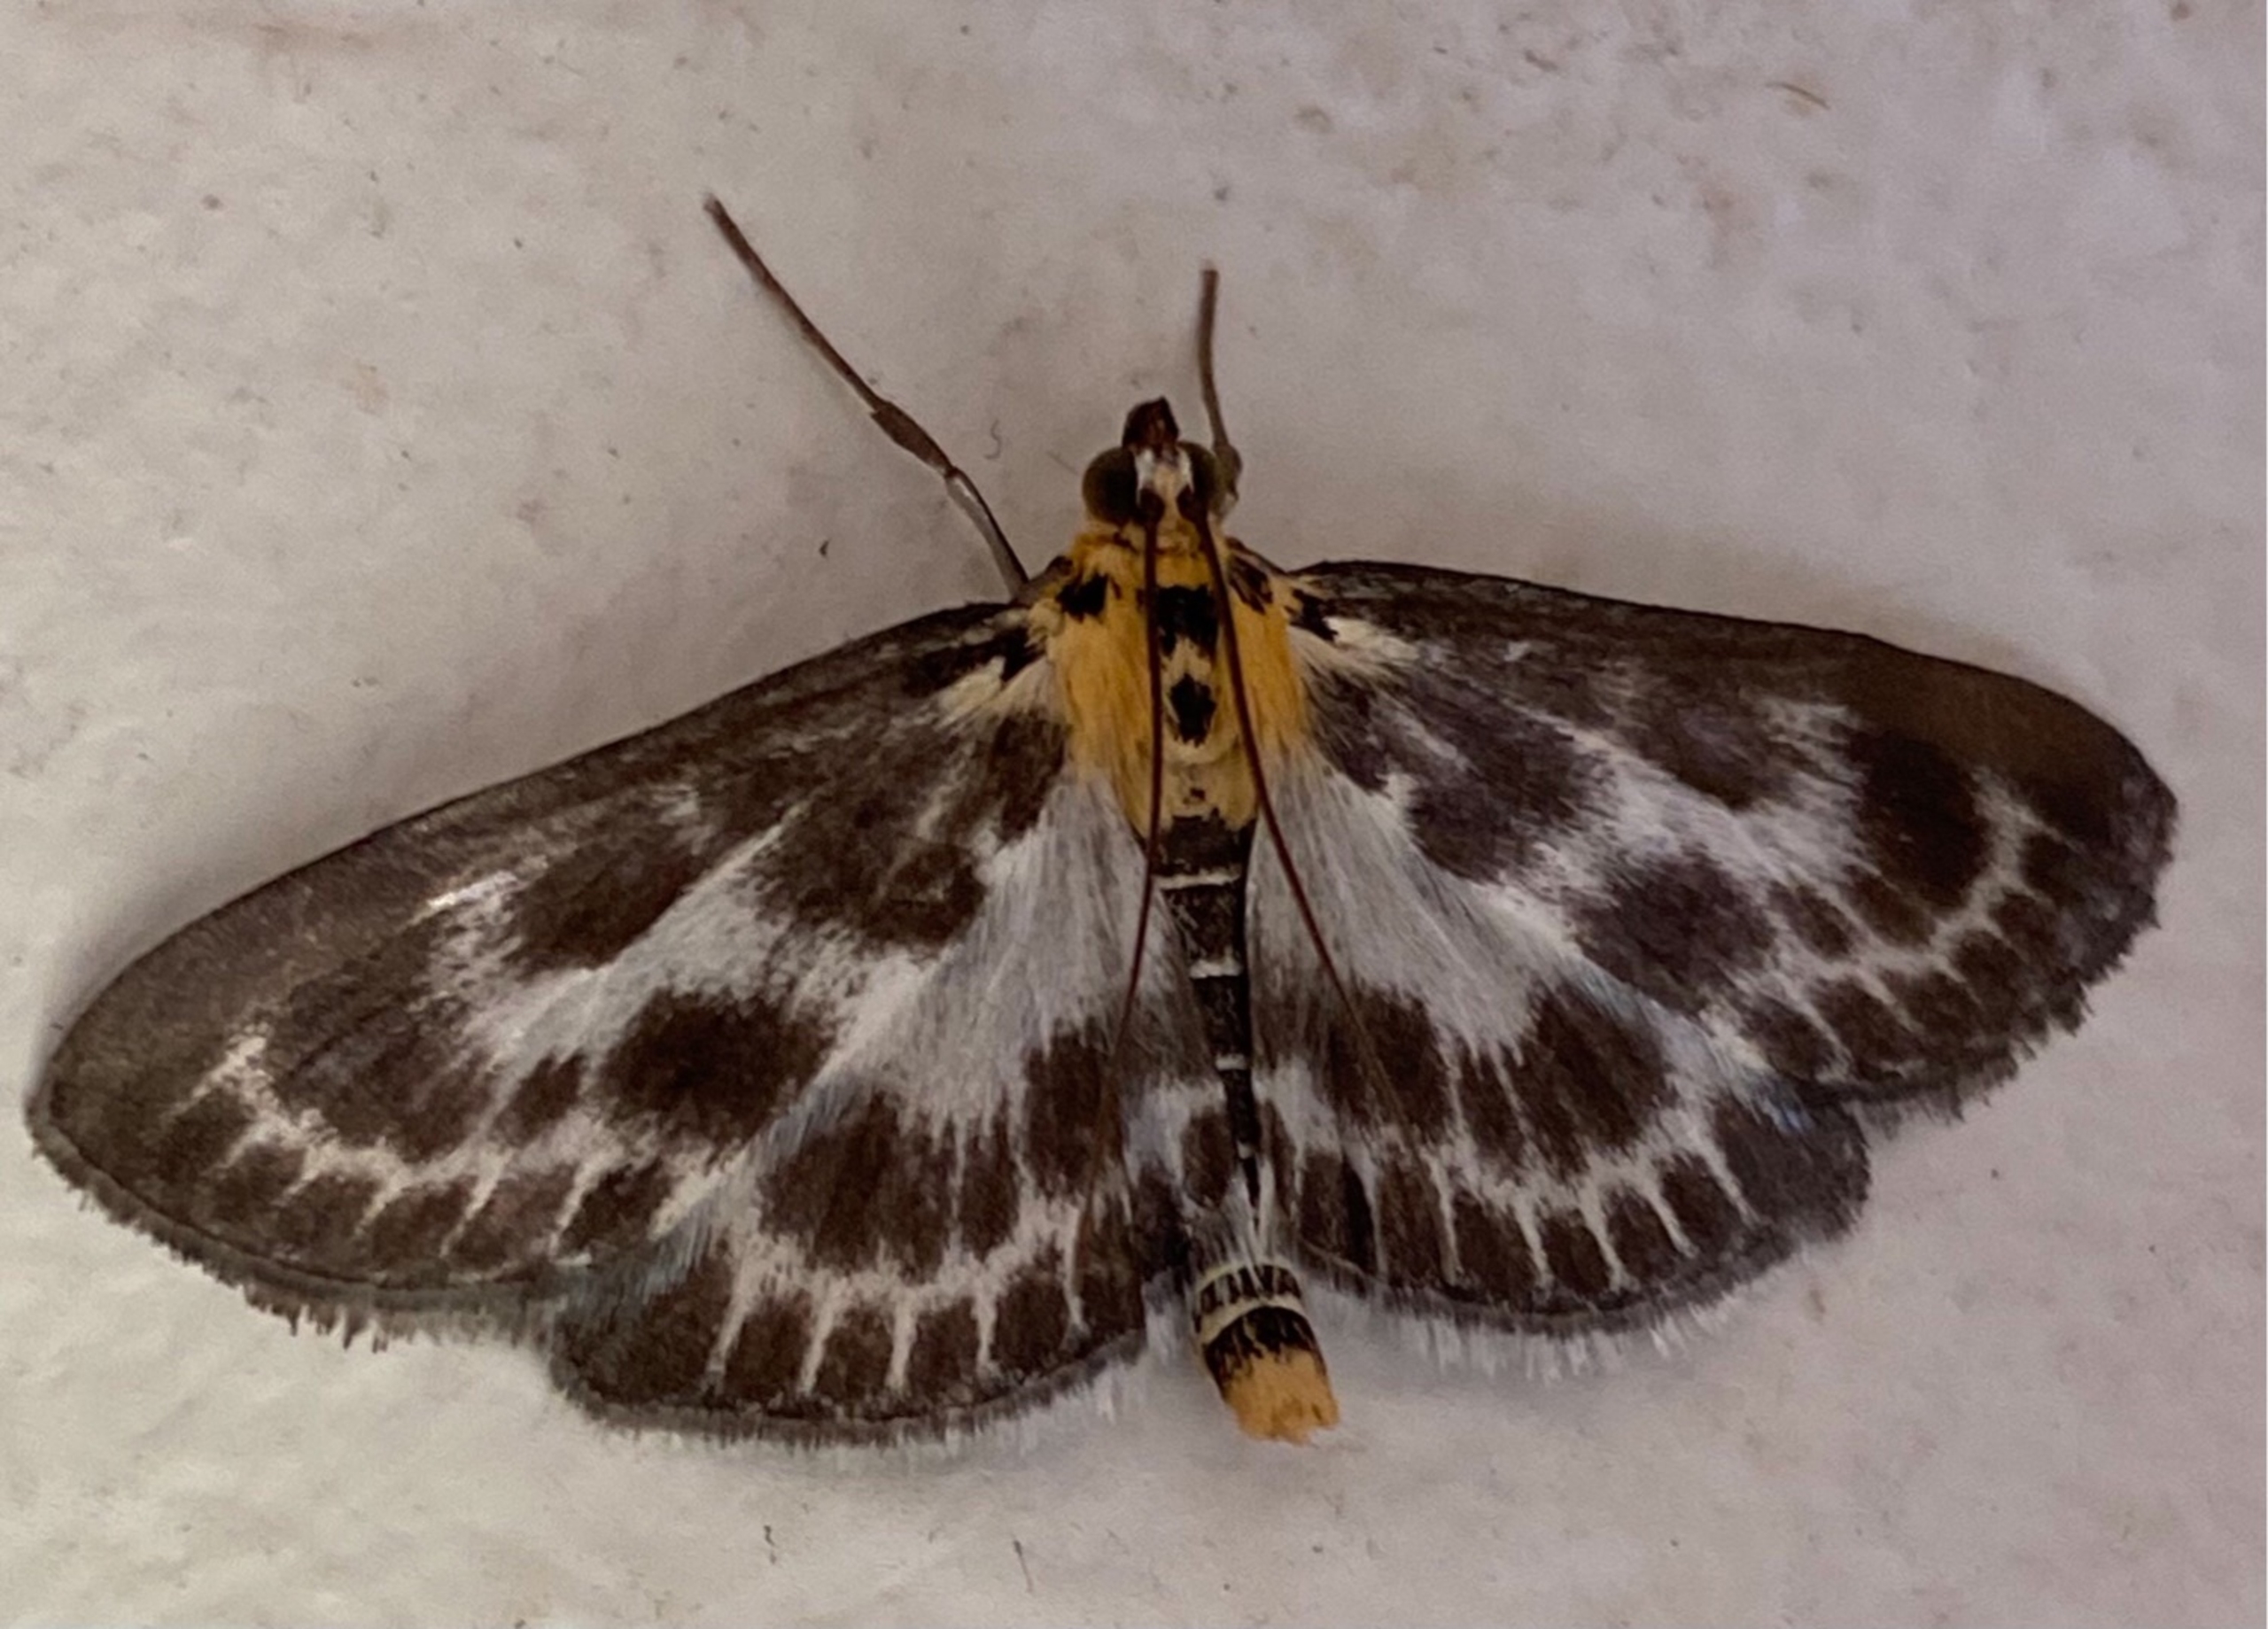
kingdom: Animalia
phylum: Arthropoda
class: Insecta
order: Lepidoptera
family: Crambidae
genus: Anania
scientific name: Anania hortulata
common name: Nældehalvmøl
